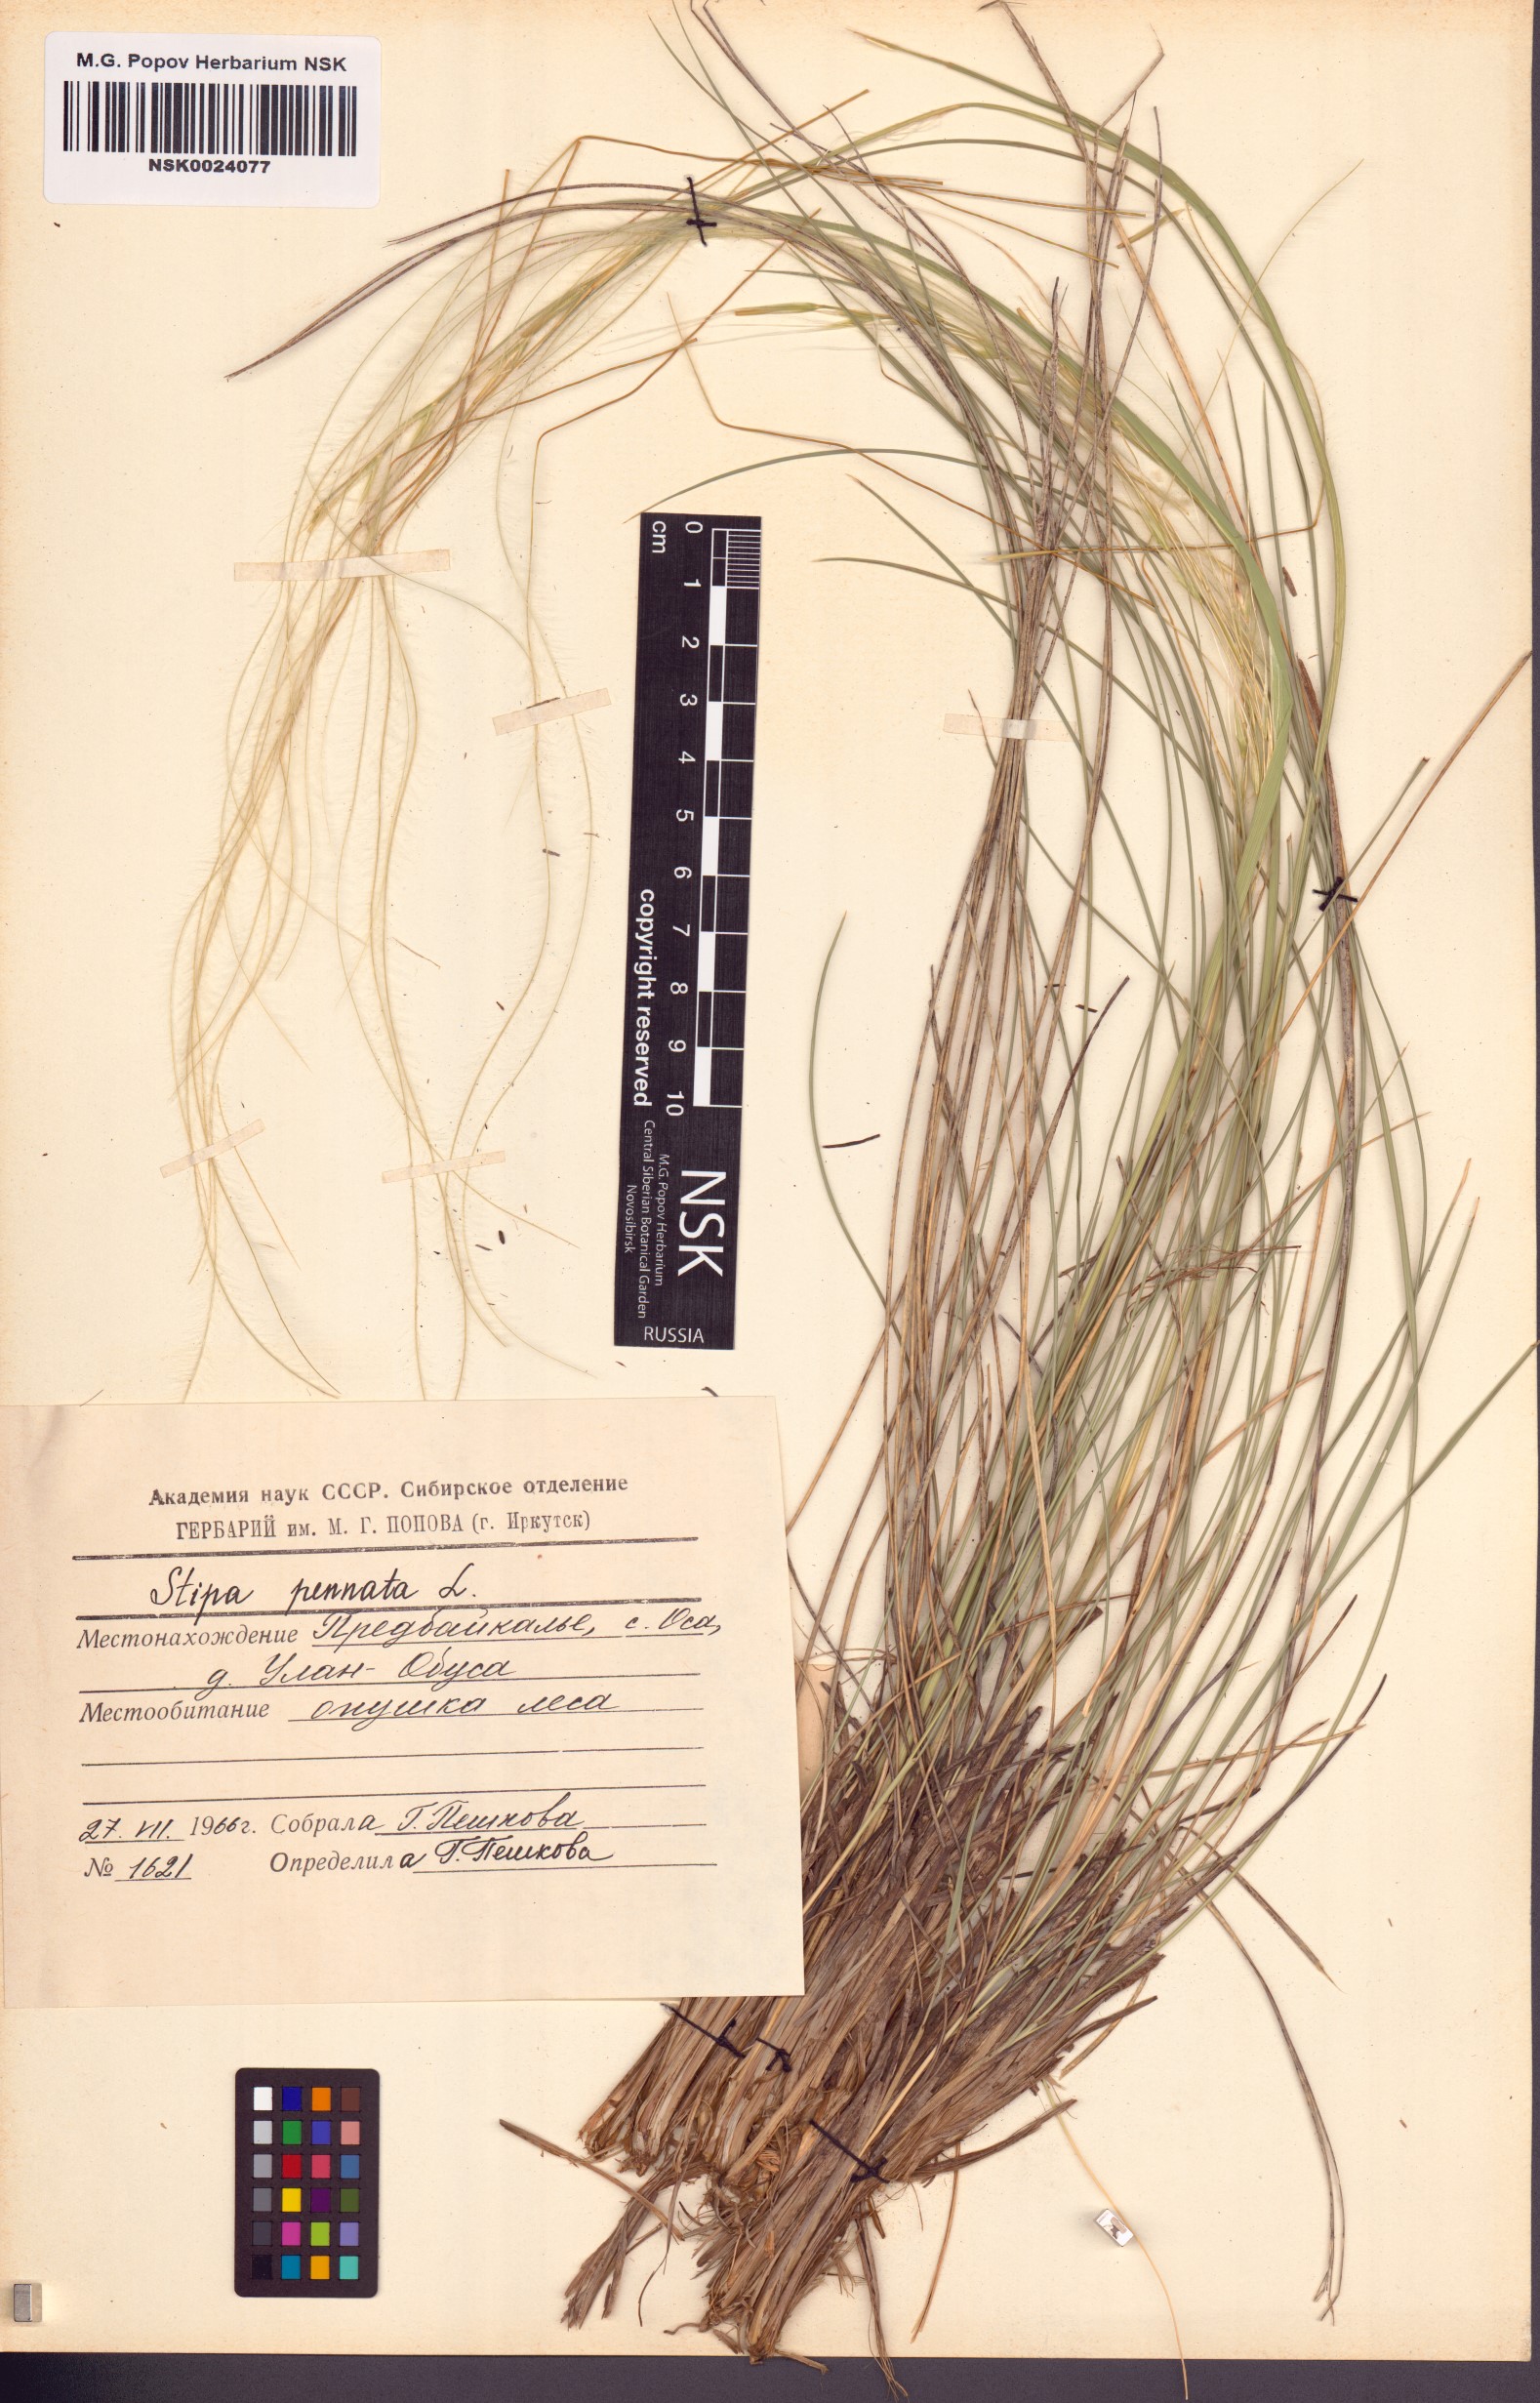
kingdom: Plantae
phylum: Tracheophyta
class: Liliopsida
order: Poales
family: Poaceae
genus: Stipa
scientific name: Stipa pennata
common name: European feather grass
